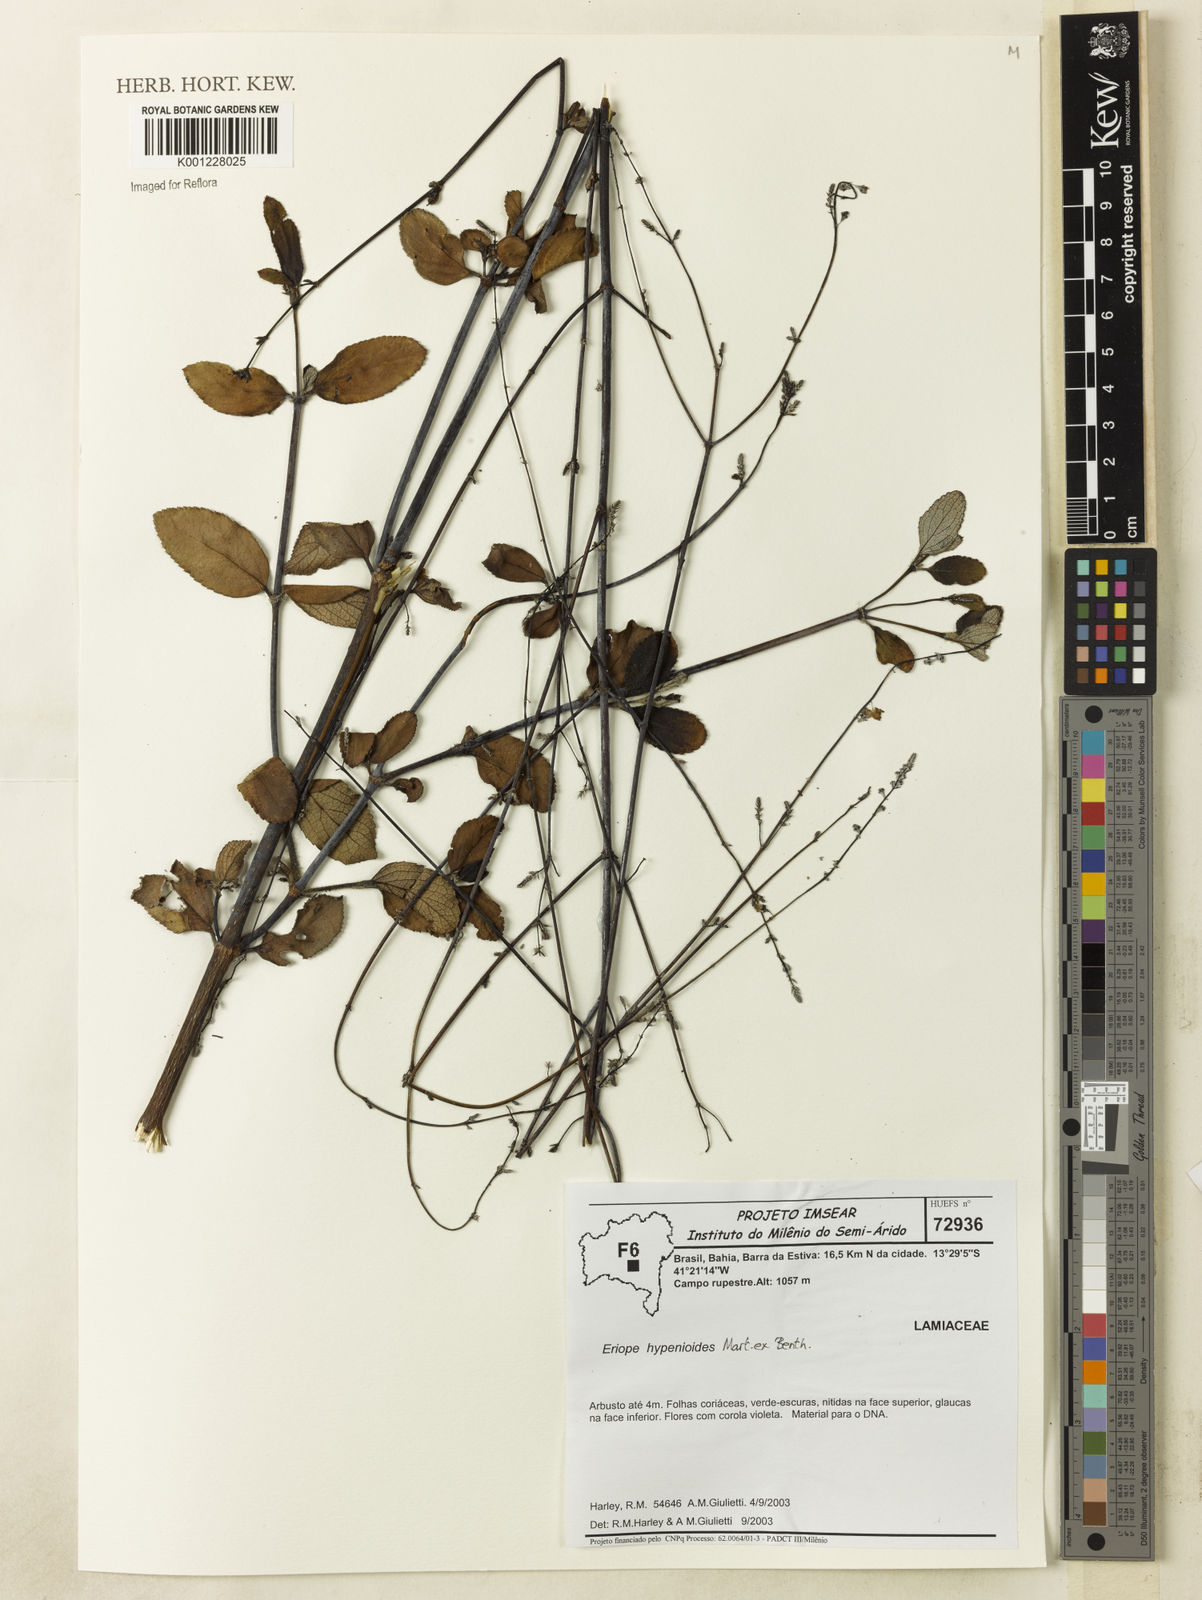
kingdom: Plantae
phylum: Tracheophyta
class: Magnoliopsida
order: Lamiales
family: Lamiaceae
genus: Eriope
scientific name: Eriope hypenioides
